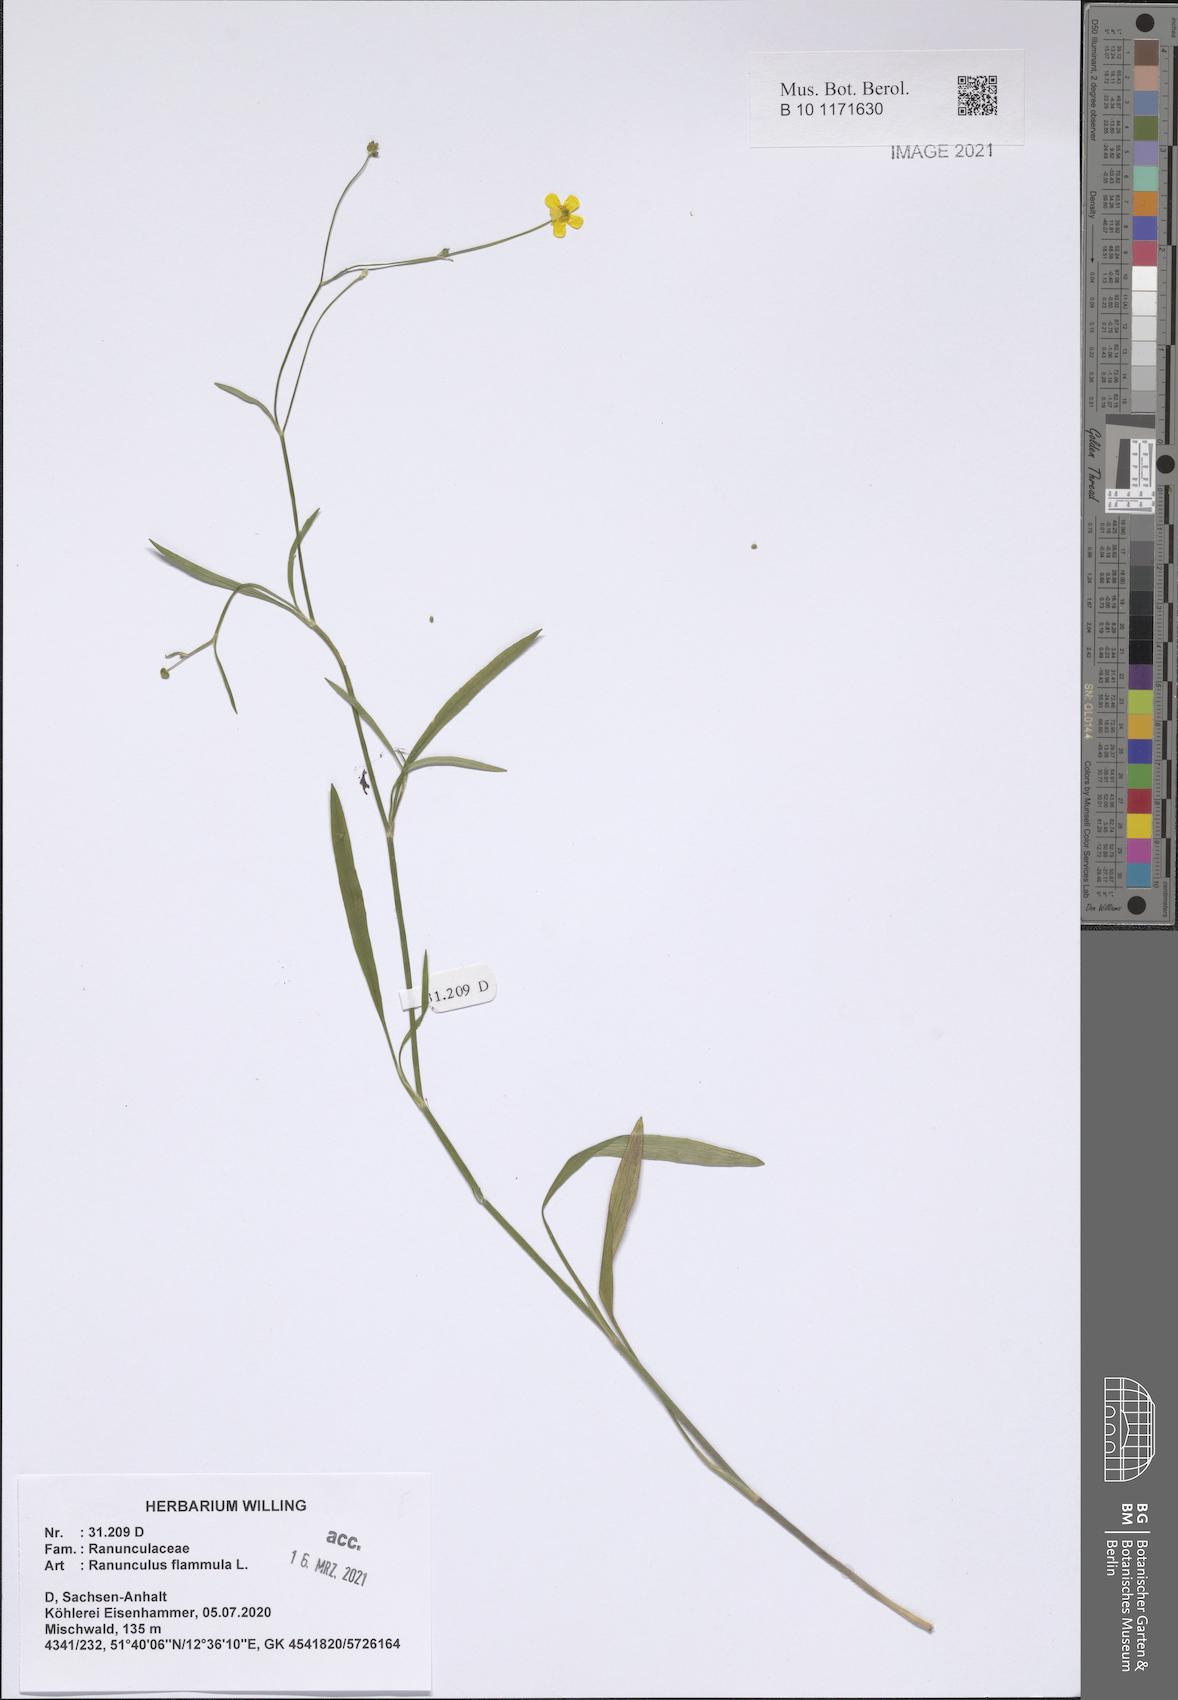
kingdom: Plantae
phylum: Tracheophyta
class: Magnoliopsida
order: Ranunculales
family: Ranunculaceae
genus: Ranunculus
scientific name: Ranunculus flammula
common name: Lesser spearwort
